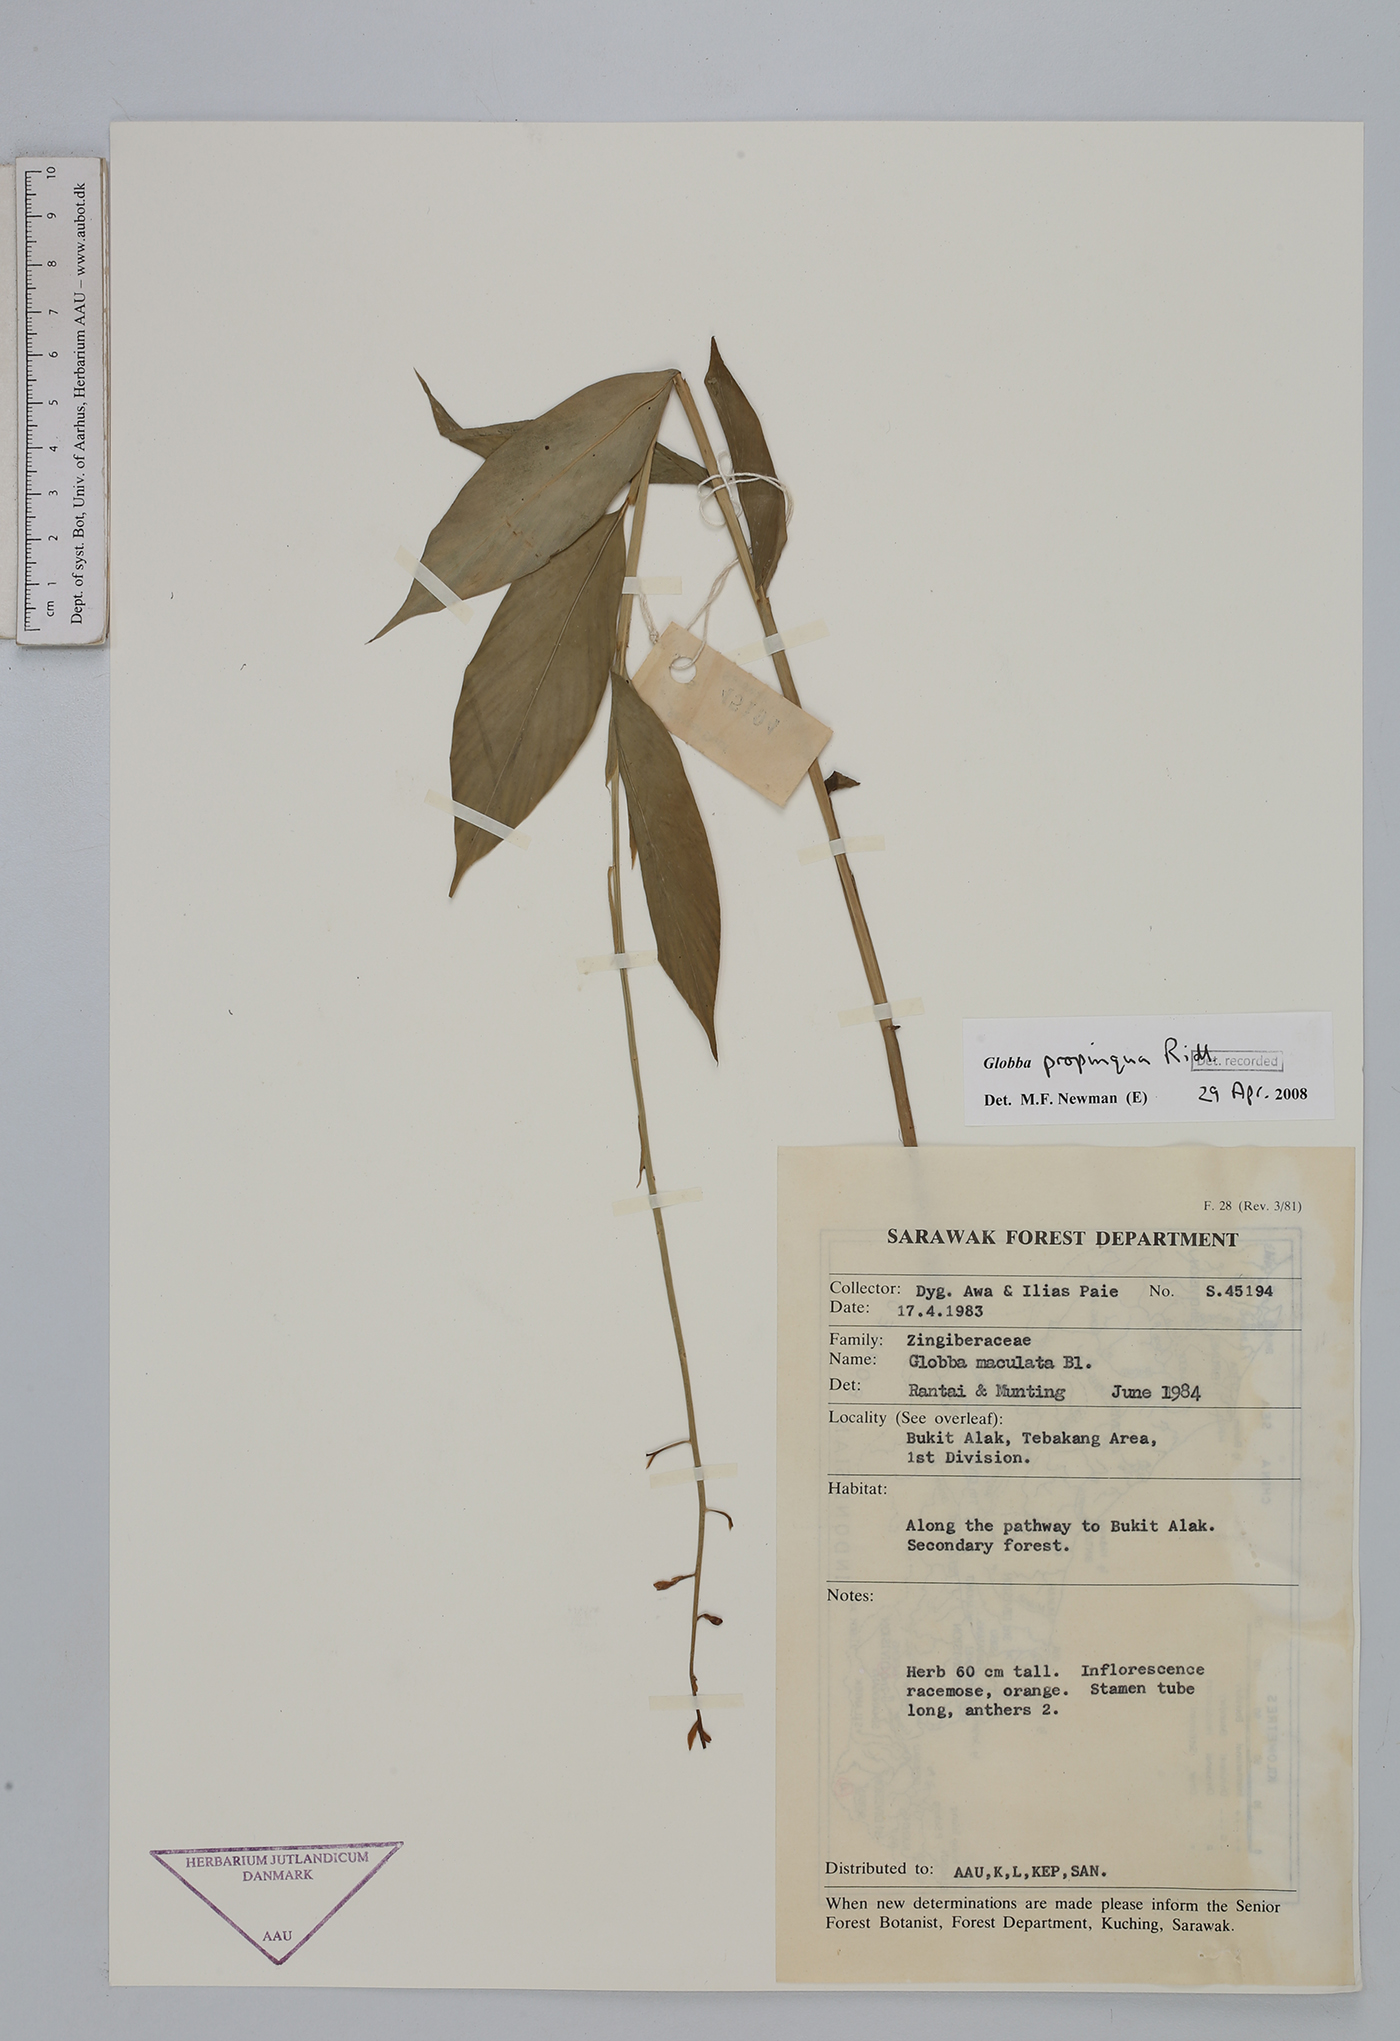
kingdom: Plantae
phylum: Tracheophyta
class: Liliopsida
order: Zingiberales
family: Zingiberaceae
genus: Globba
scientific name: Globba propinqua
